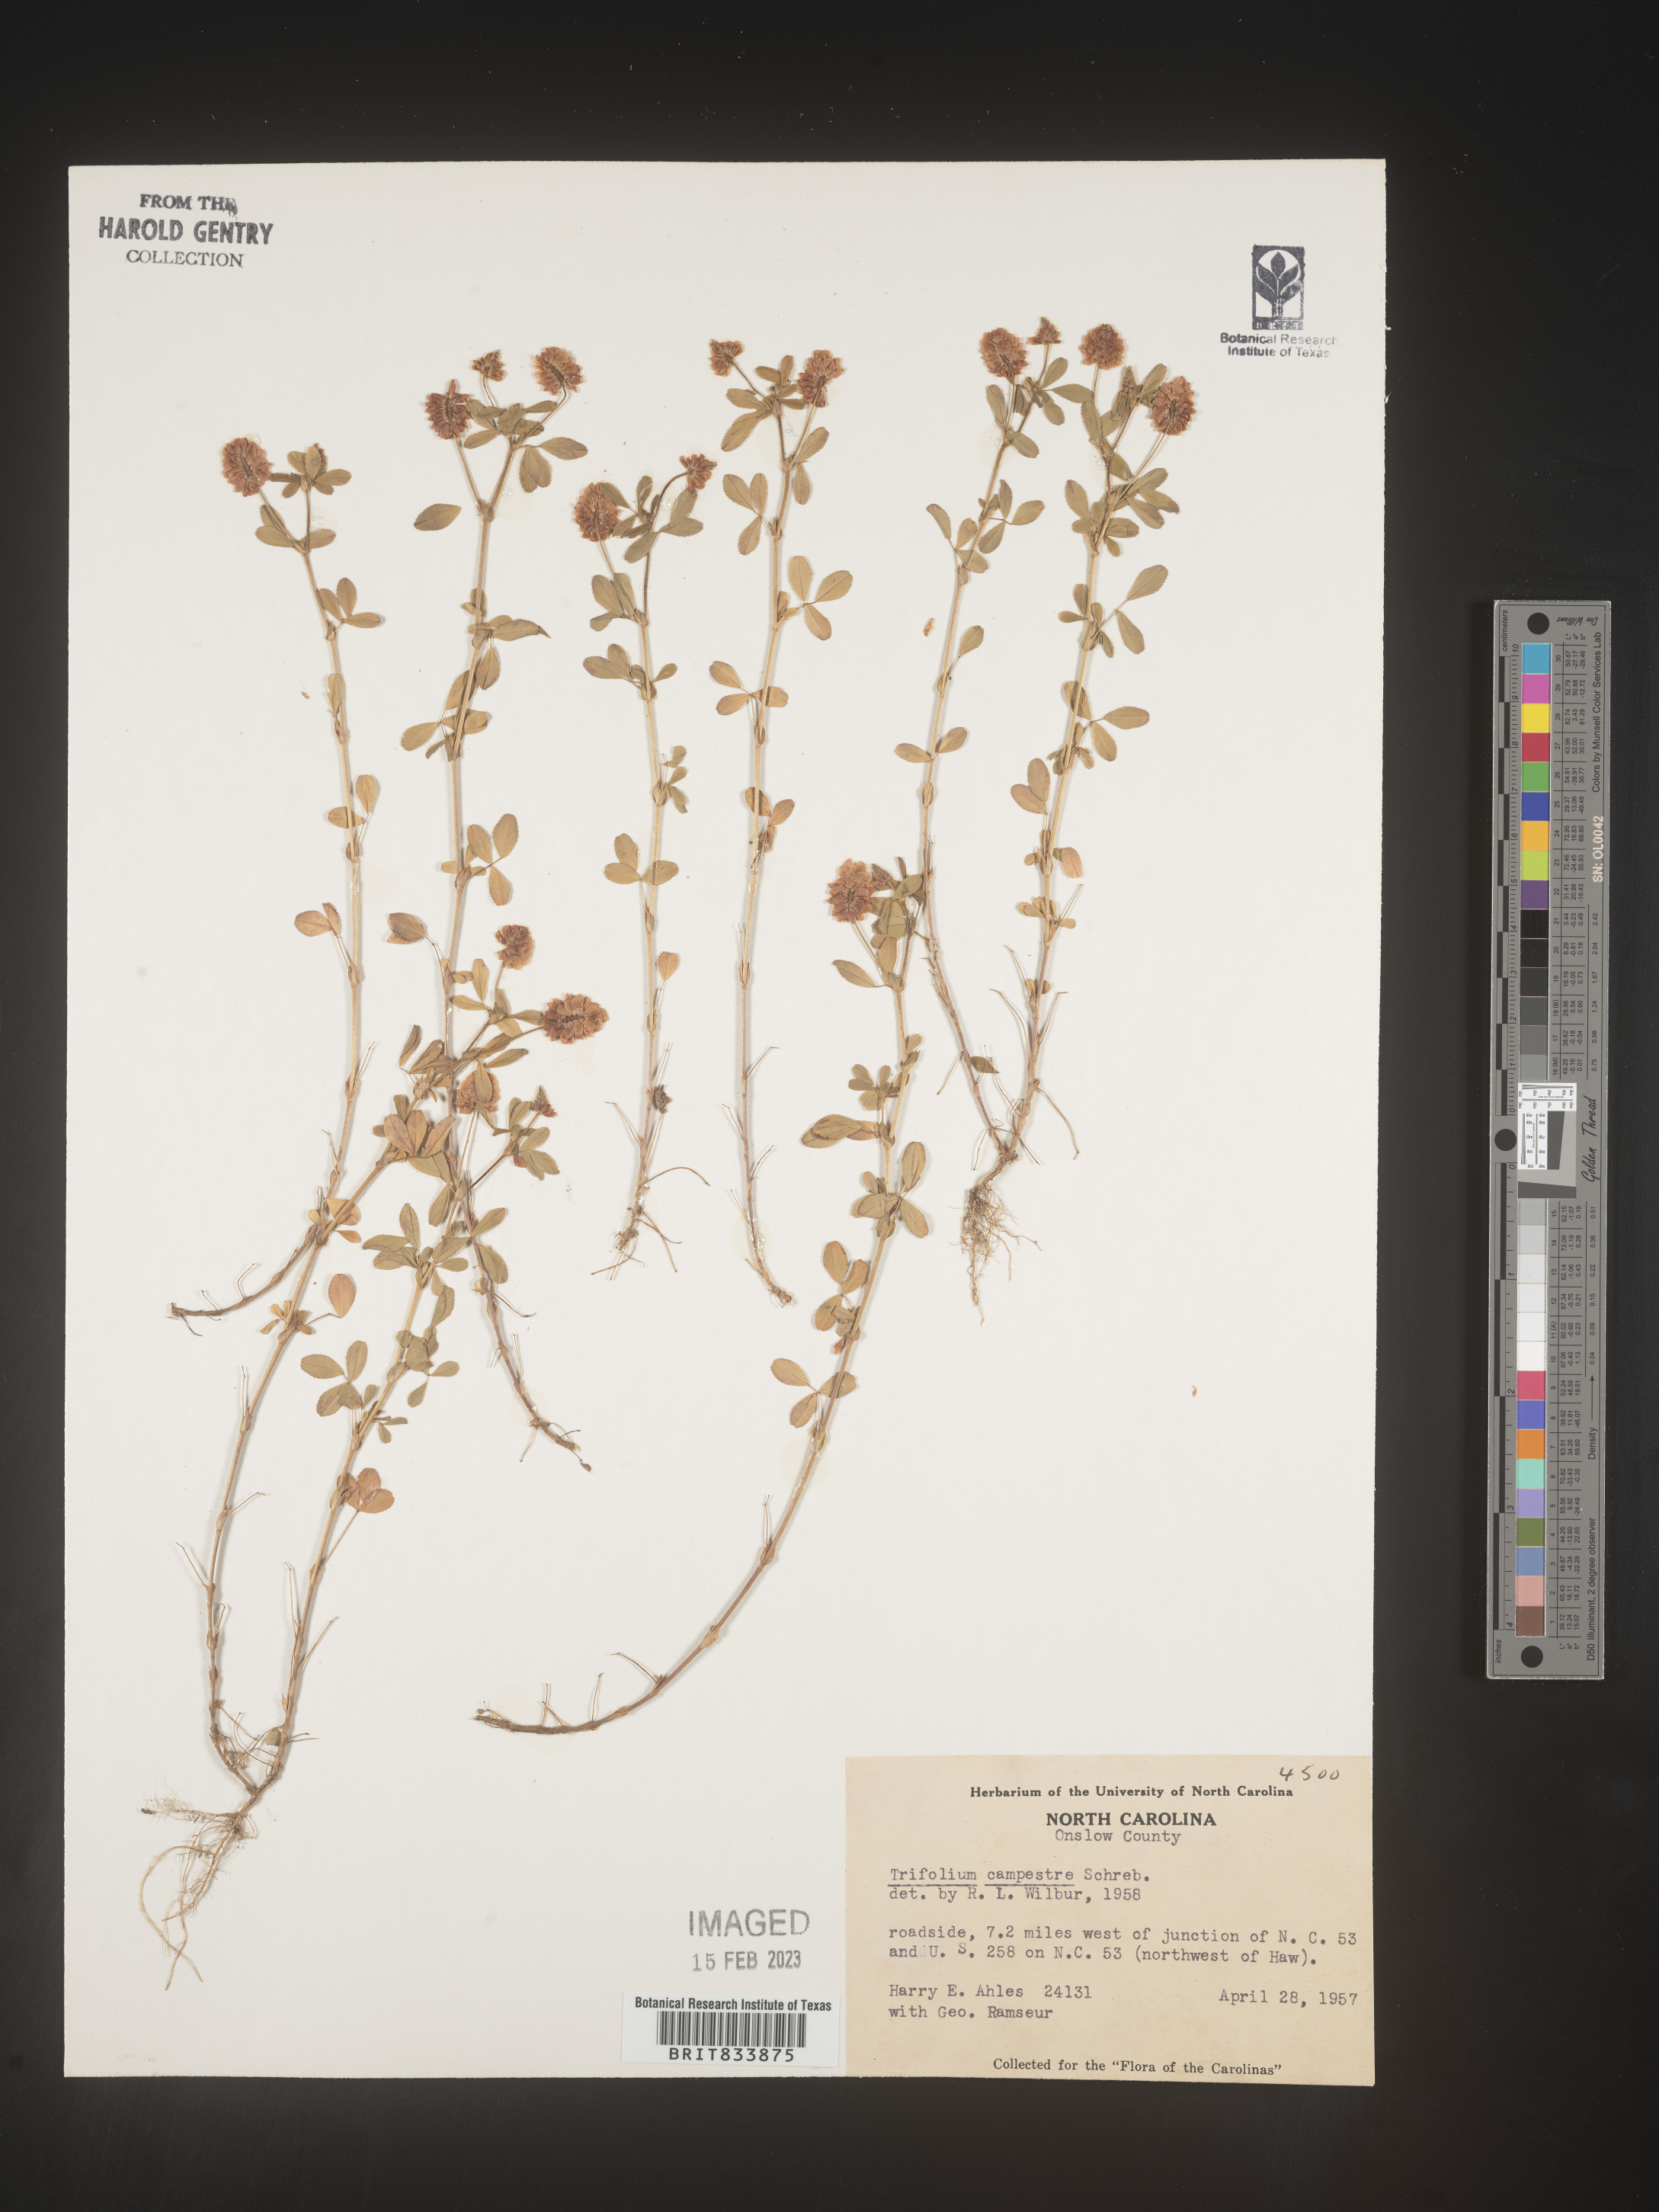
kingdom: Plantae
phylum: Tracheophyta
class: Magnoliopsida
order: Fabales
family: Fabaceae
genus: Trifolium
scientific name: Trifolium campestre
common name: Field clover
